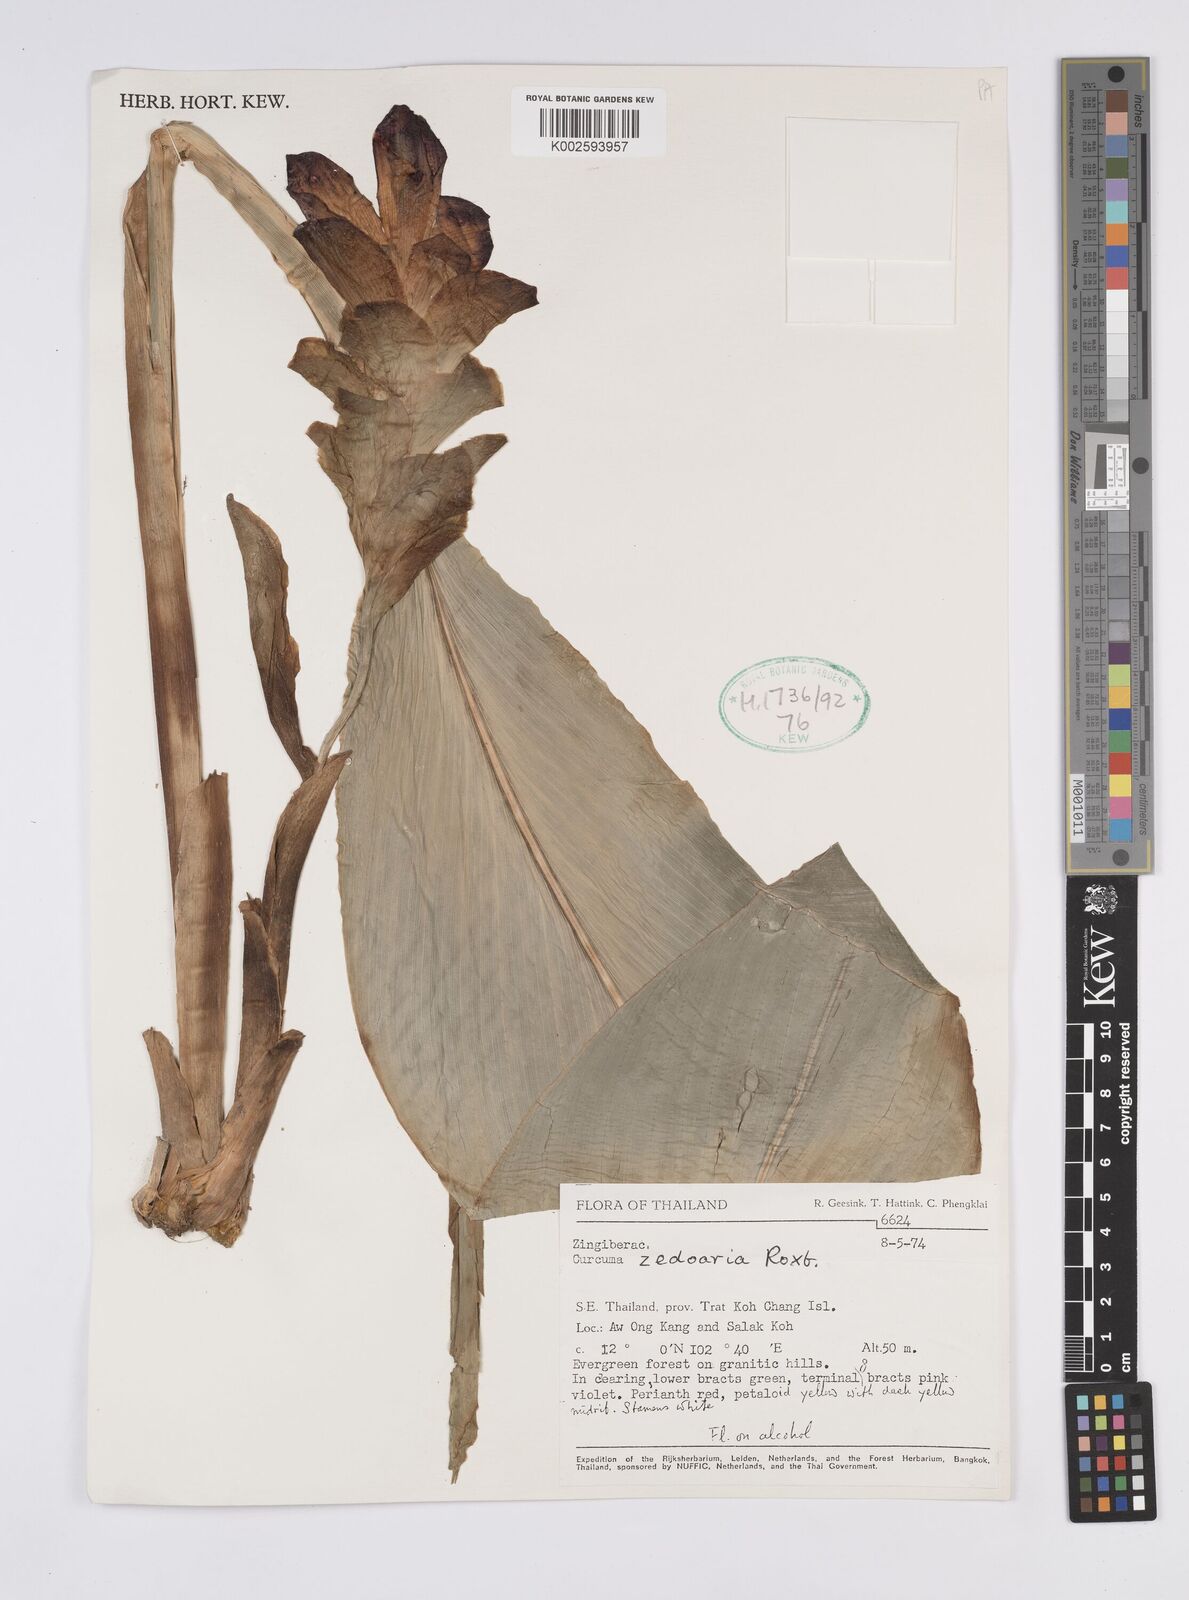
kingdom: Plantae
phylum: Tracheophyta
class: Liliopsida
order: Zingiberales
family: Zingiberaceae
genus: Curcuma
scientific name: Curcuma aromatica
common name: Wild turmeric
